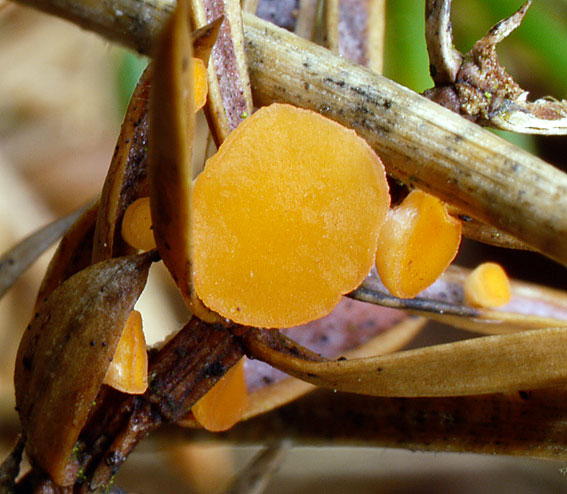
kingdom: Fungi
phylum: Ascomycota
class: Pezizomycetes
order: Pezizales
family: Sarcoscyphaceae
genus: Pithya
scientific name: Pithya cupressina
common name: lille dukatbæger
